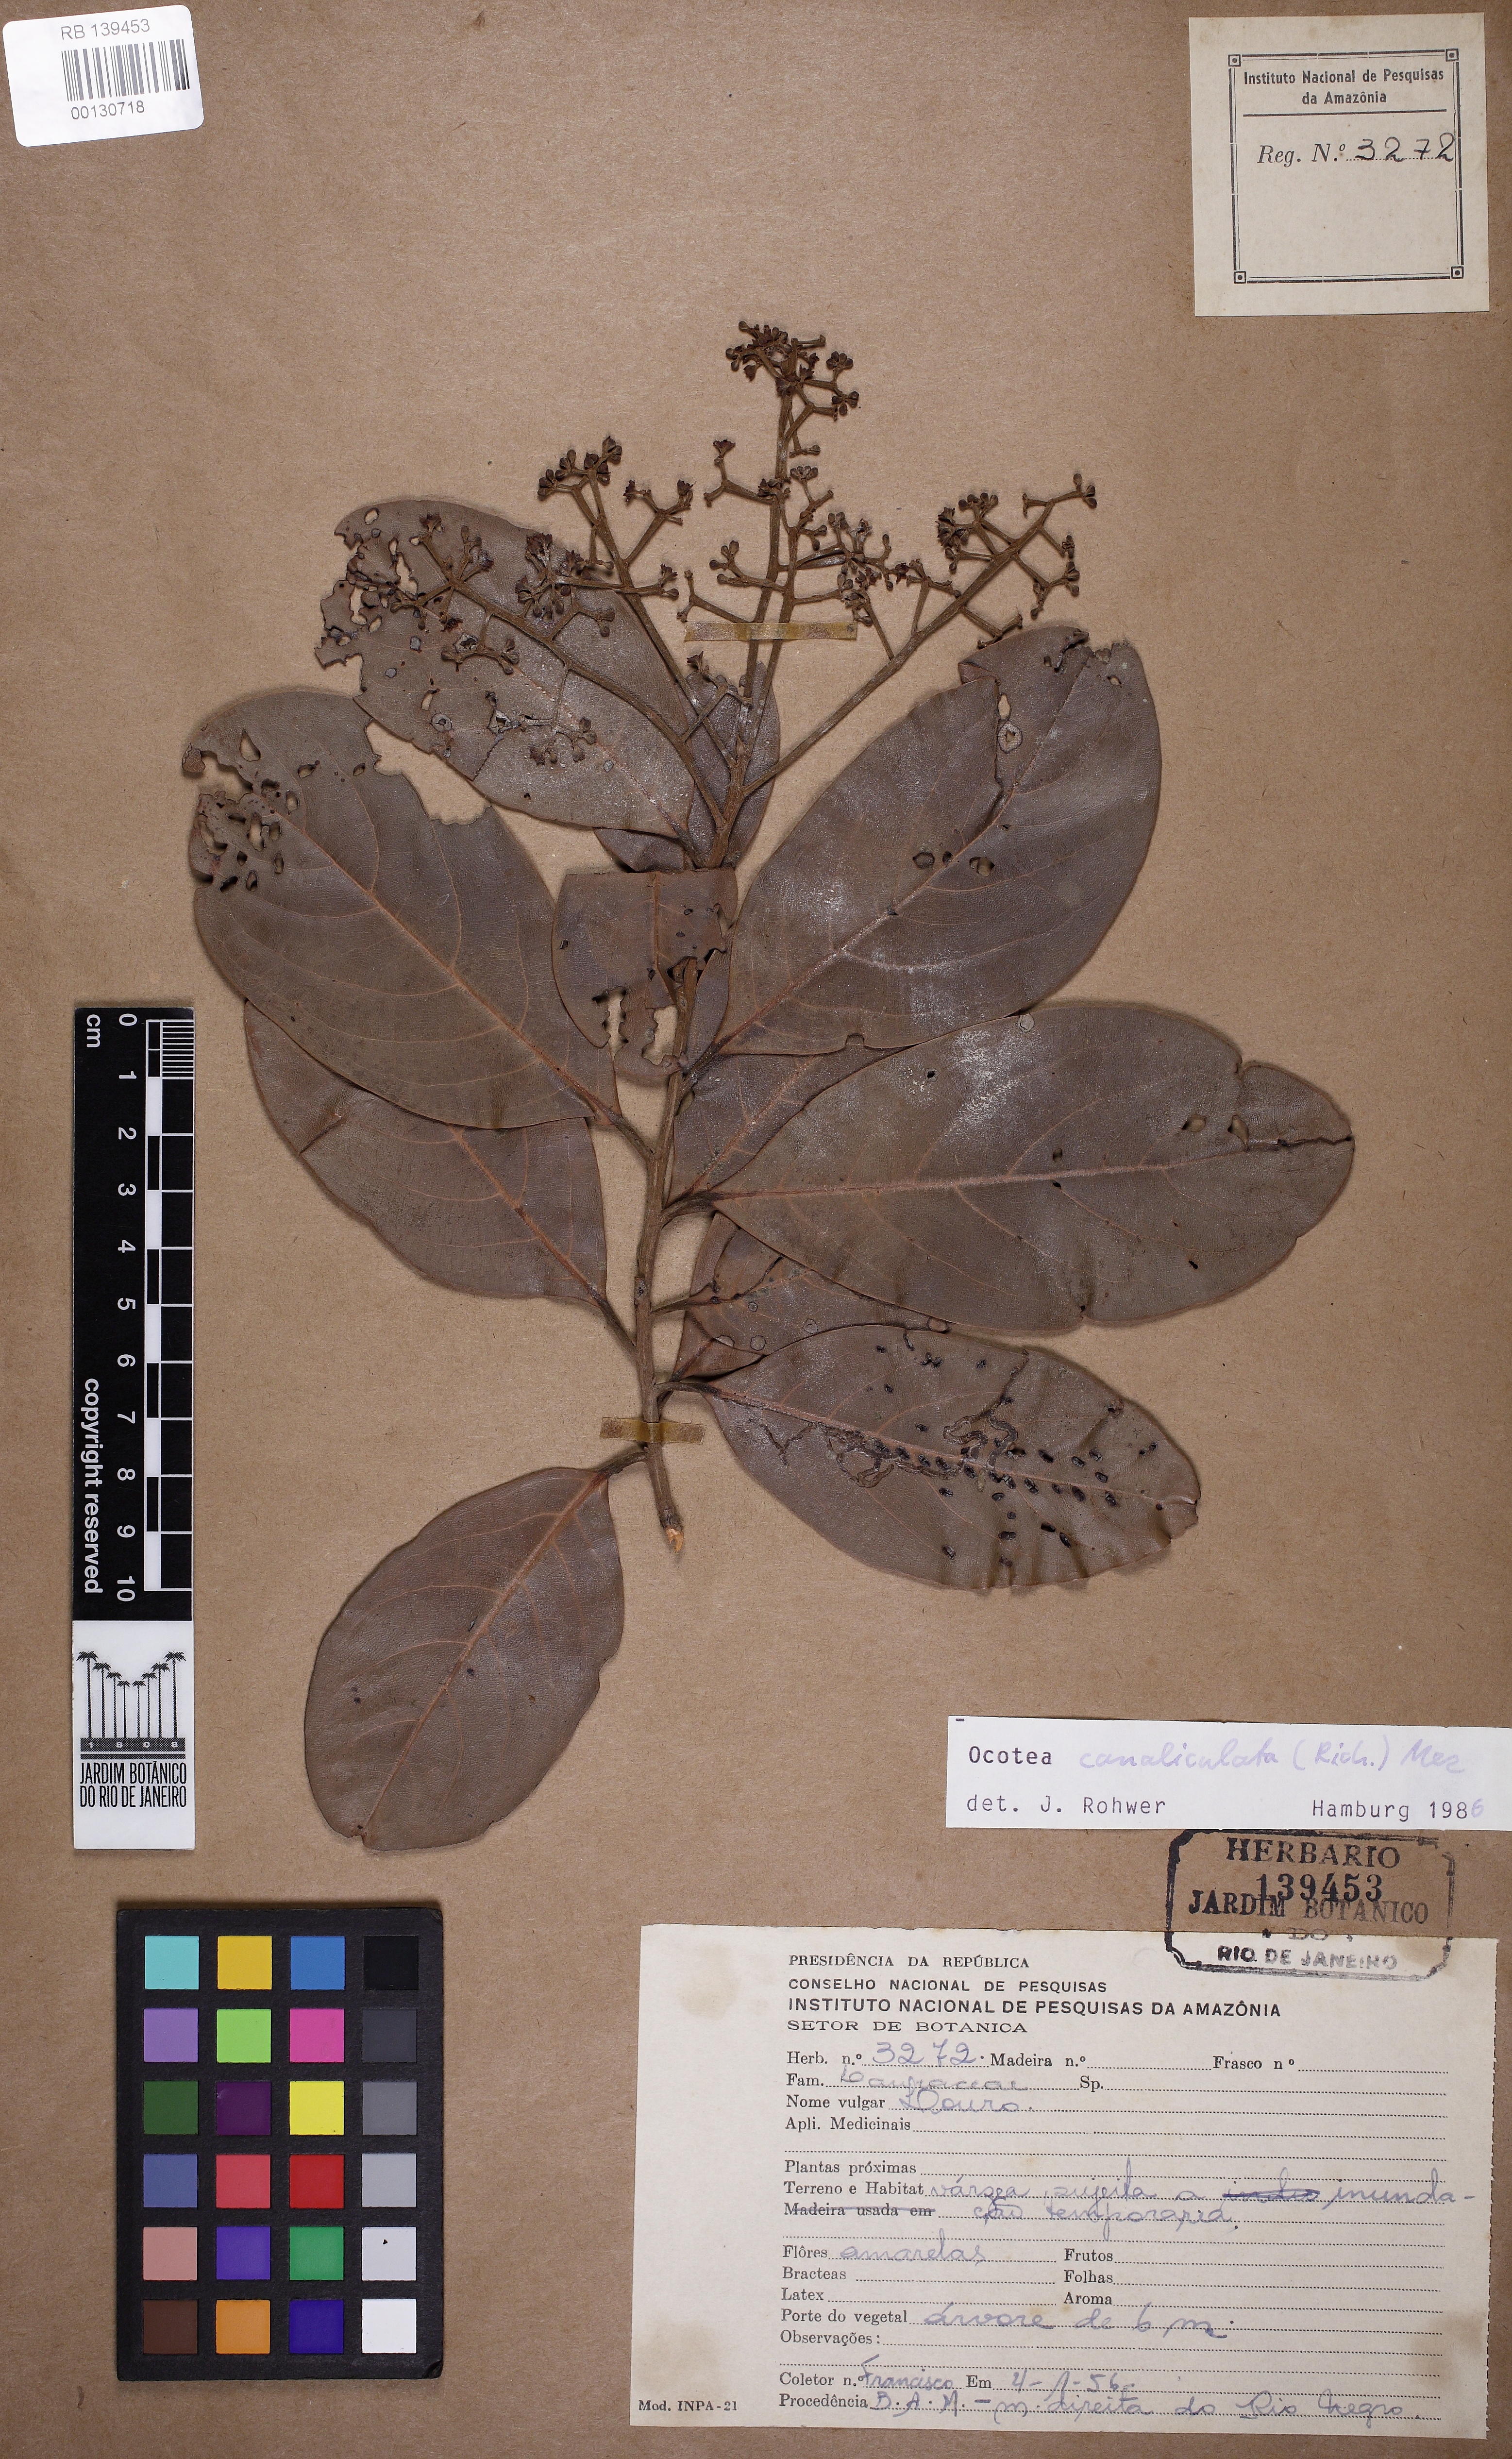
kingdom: Plantae
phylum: Tracheophyta
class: Magnoliopsida
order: Laurales
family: Lauraceae
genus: Ocotea
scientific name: Ocotea canaliculata
